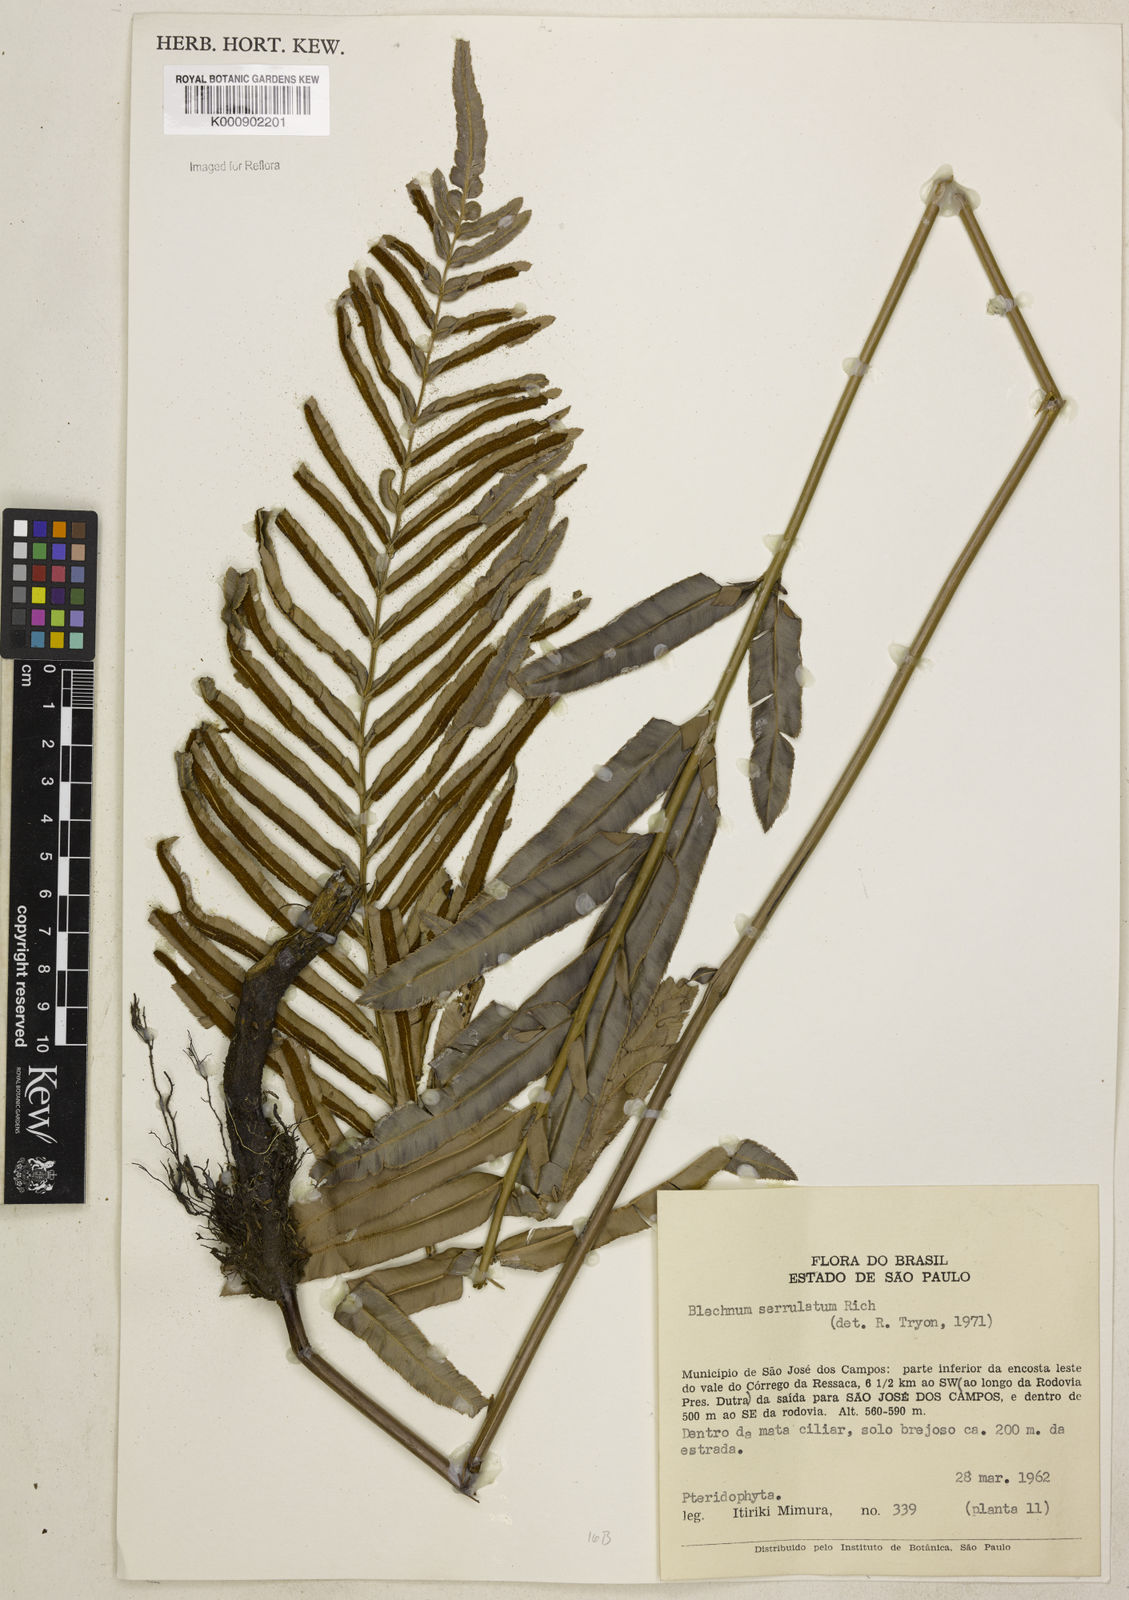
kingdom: Plantae
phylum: Tracheophyta
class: Polypodiopsida
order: Polypodiales
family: Blechnaceae
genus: Telmatoblechnum
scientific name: Telmatoblechnum serrulatum
